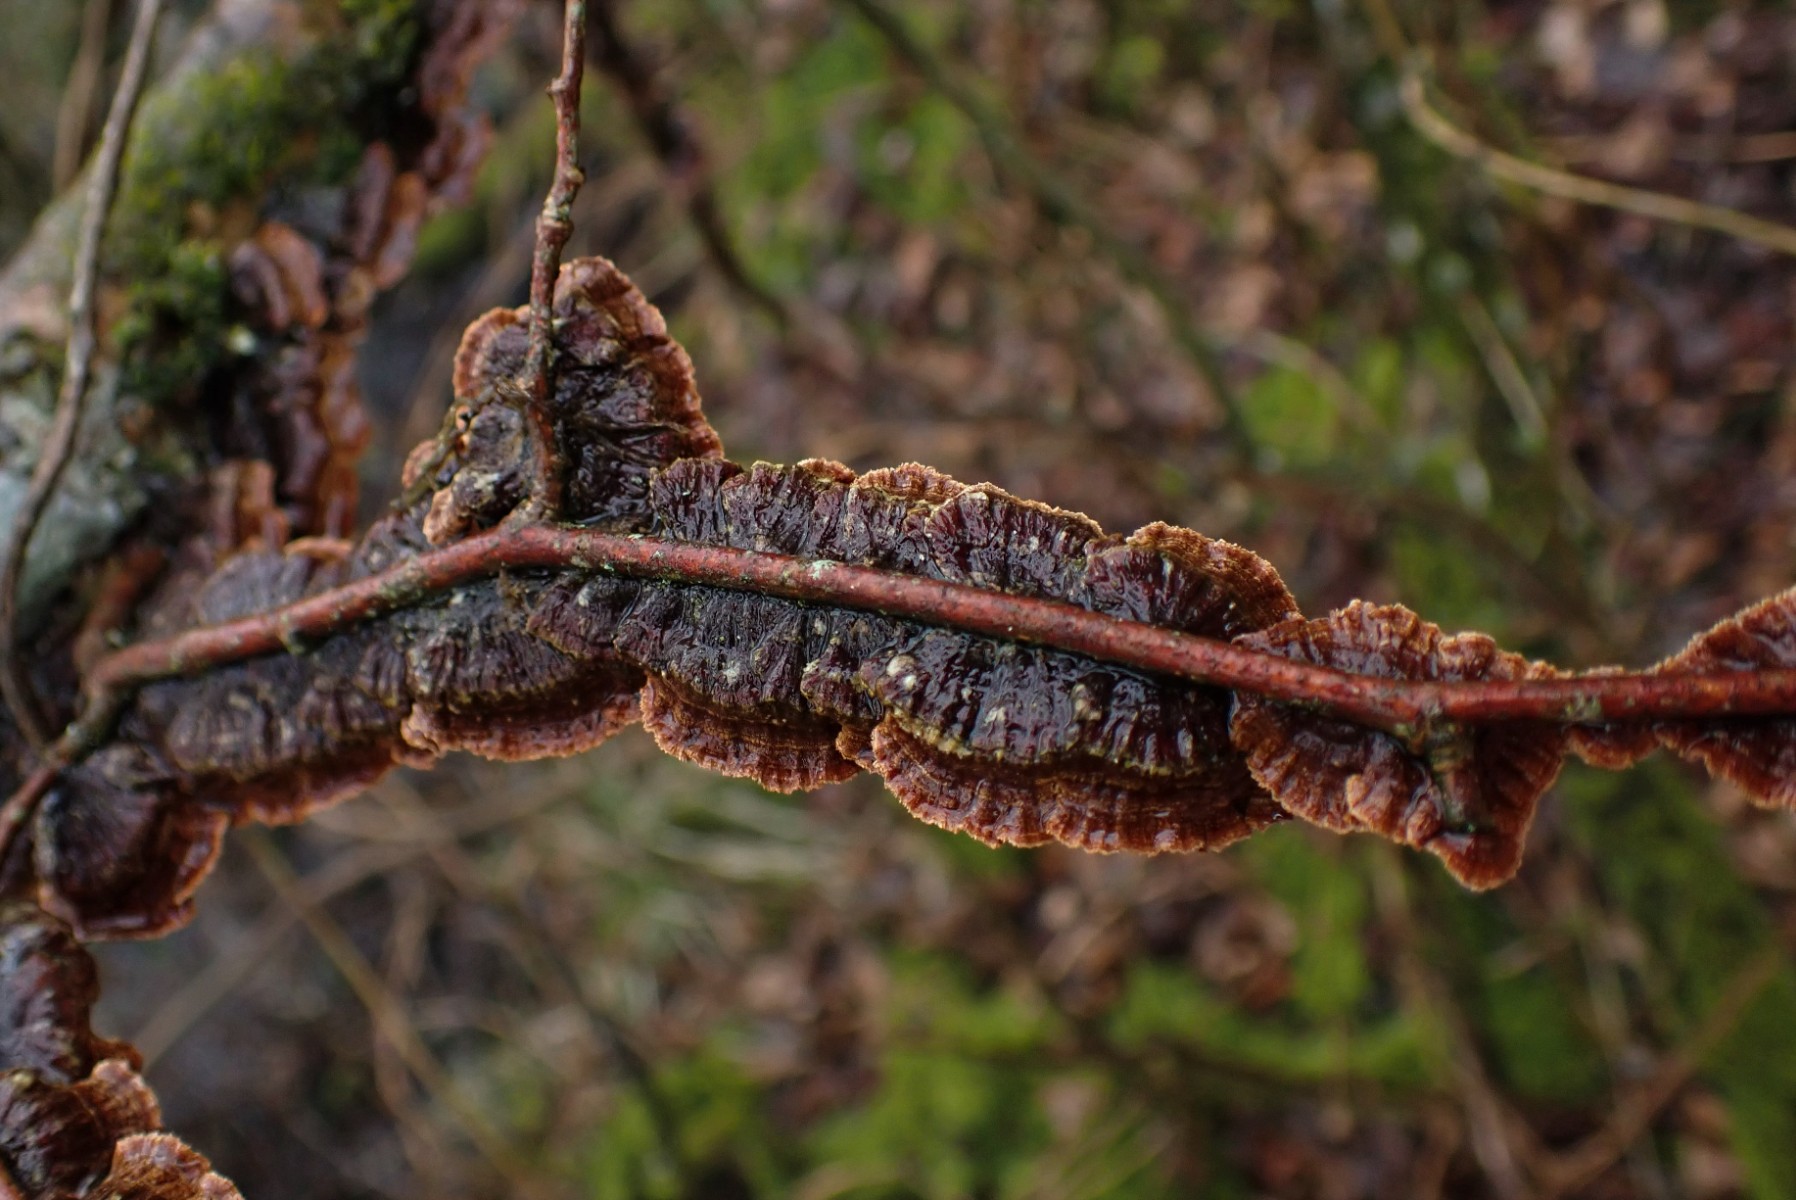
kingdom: Fungi
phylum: Basidiomycota
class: Agaricomycetes
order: Hymenochaetales
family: Hymenochaetaceae
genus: Hydnoporia
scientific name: Hydnoporia tabacina
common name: tobaksbrun ruslædersvamp
